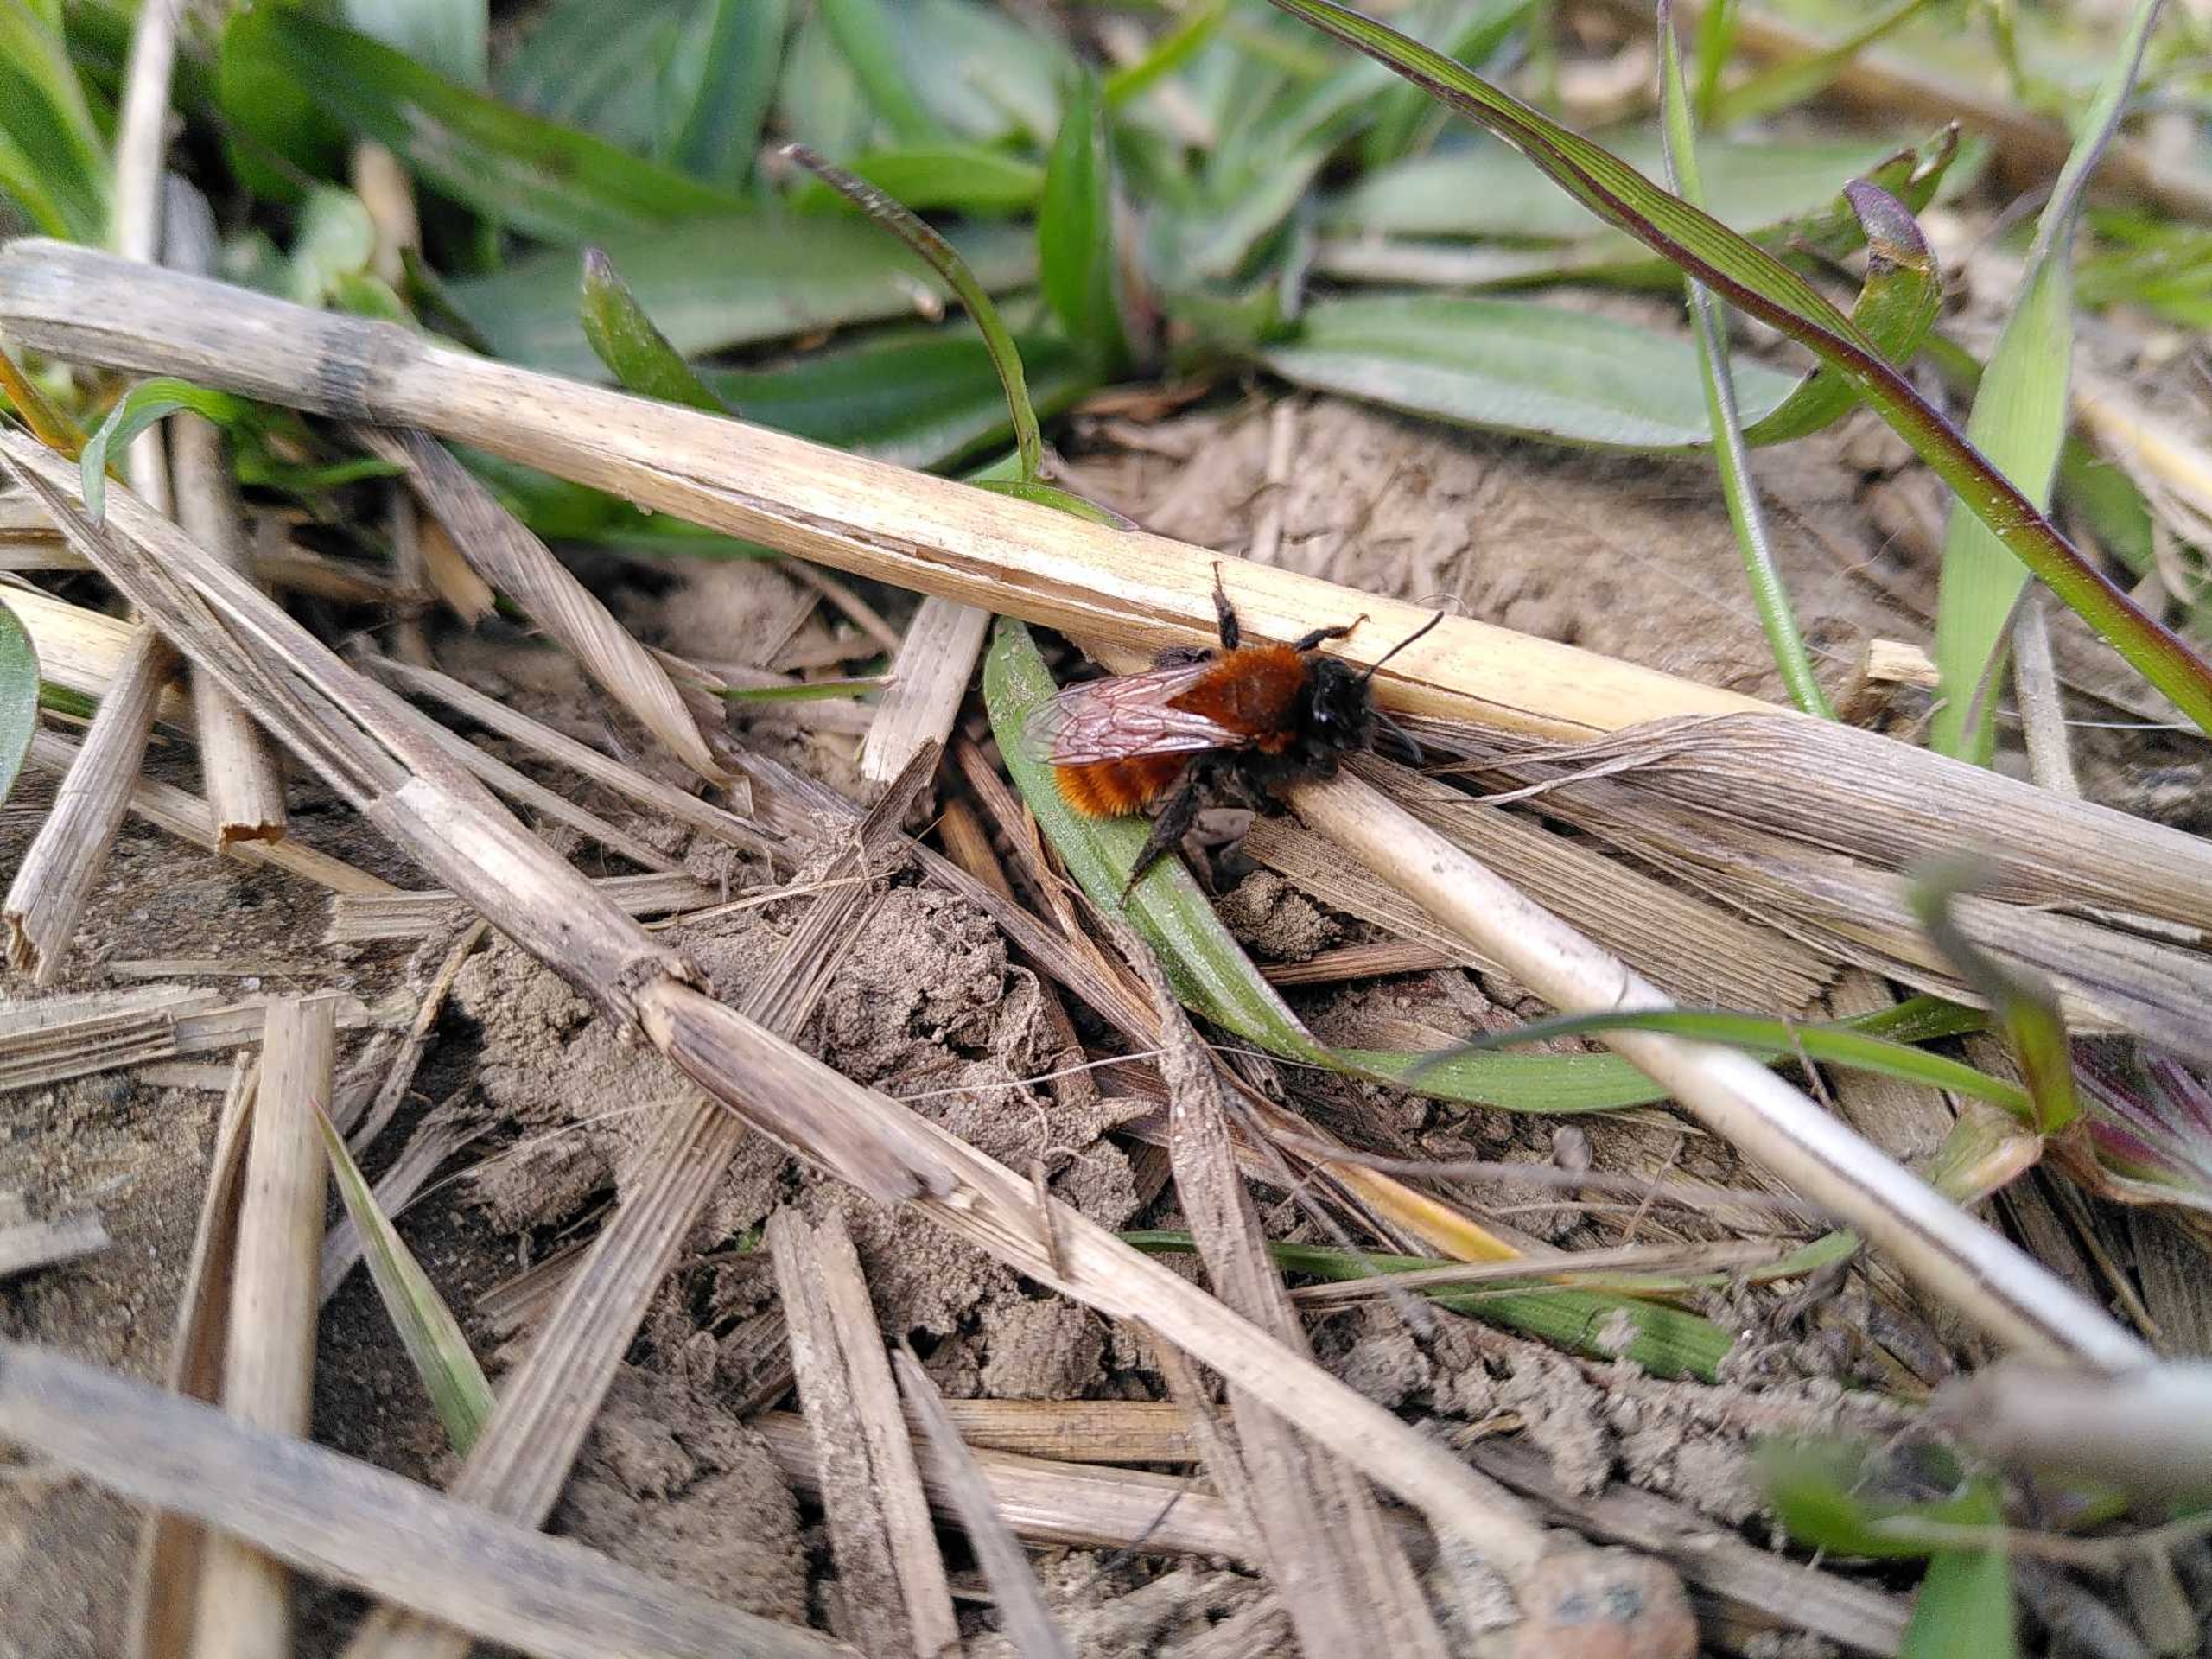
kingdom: Animalia
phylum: Arthropoda
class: Insecta
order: Hymenoptera
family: Andrenidae
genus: Andrena
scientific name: Andrena fulva
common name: Rødpelset jordbi
